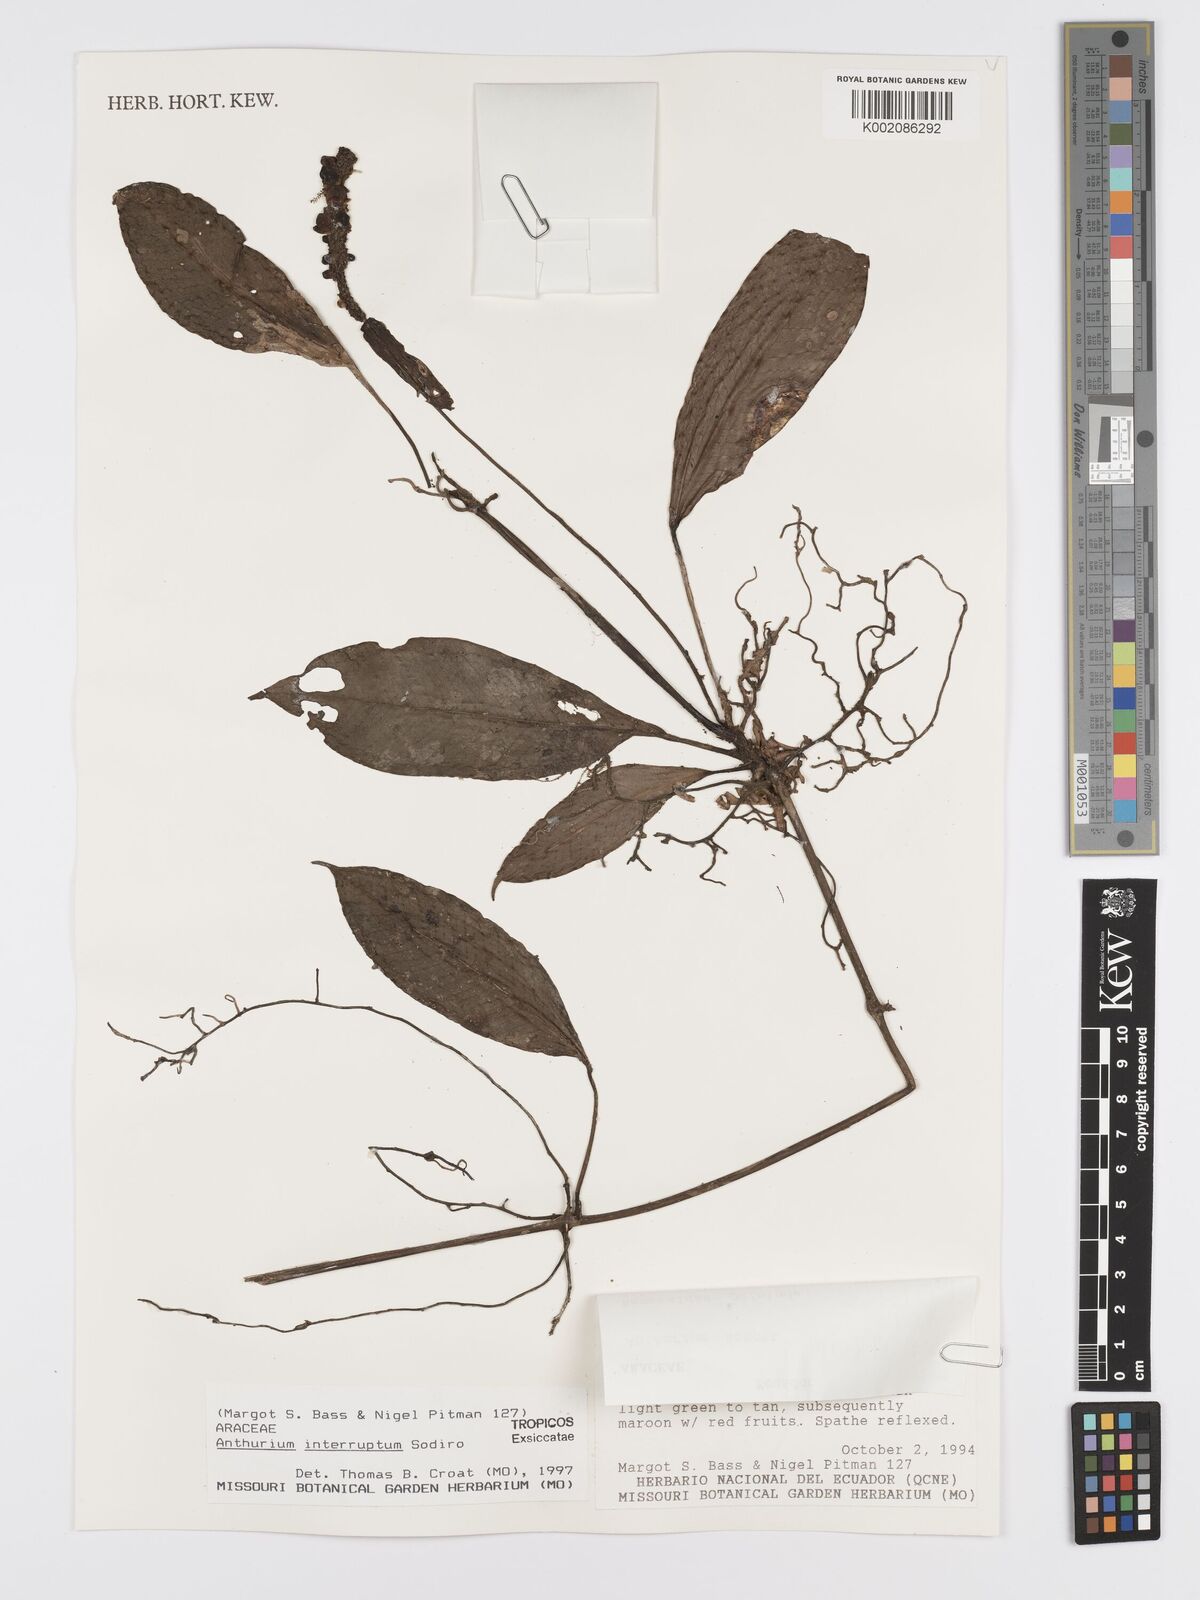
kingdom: Plantae
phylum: Tracheophyta
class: Liliopsida
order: Alismatales
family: Araceae
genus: Anthurium
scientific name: Anthurium interruptum
